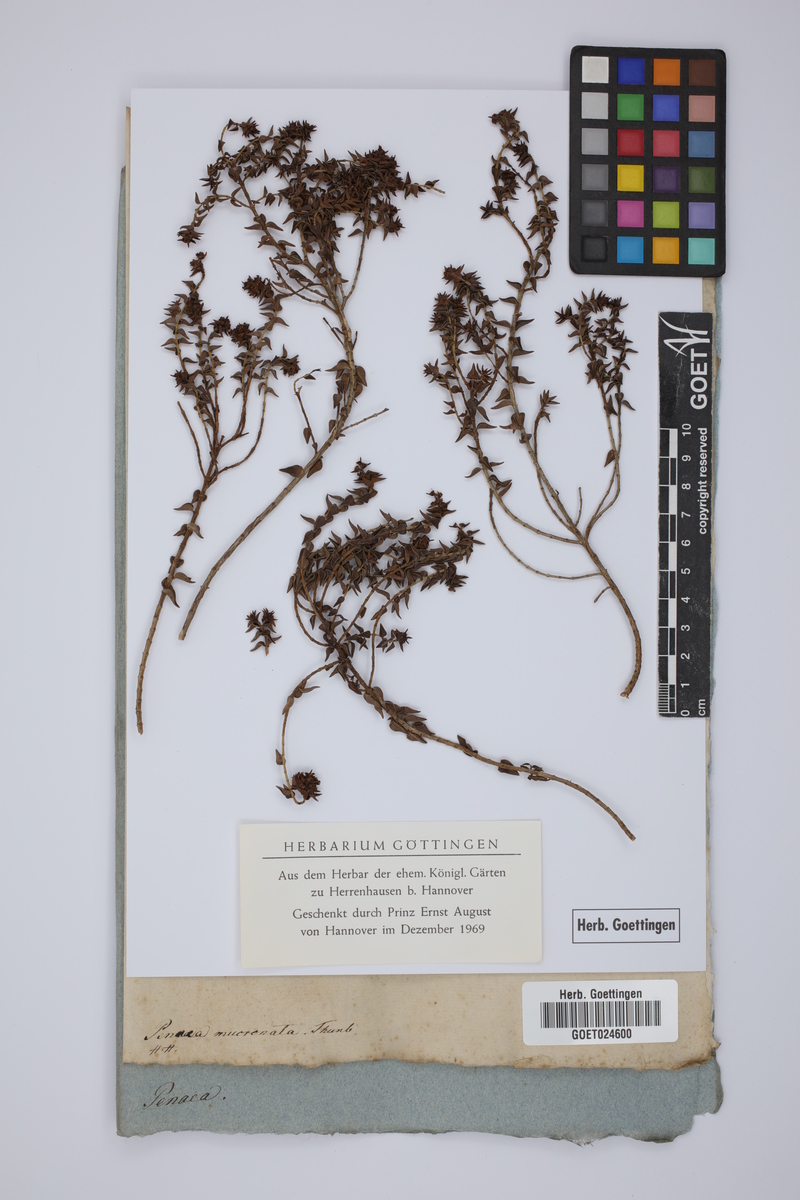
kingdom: Plantae
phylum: Tracheophyta
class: Magnoliopsida
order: Myrtales
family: Penaeaceae
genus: Penaea
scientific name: Penaea mucronata
